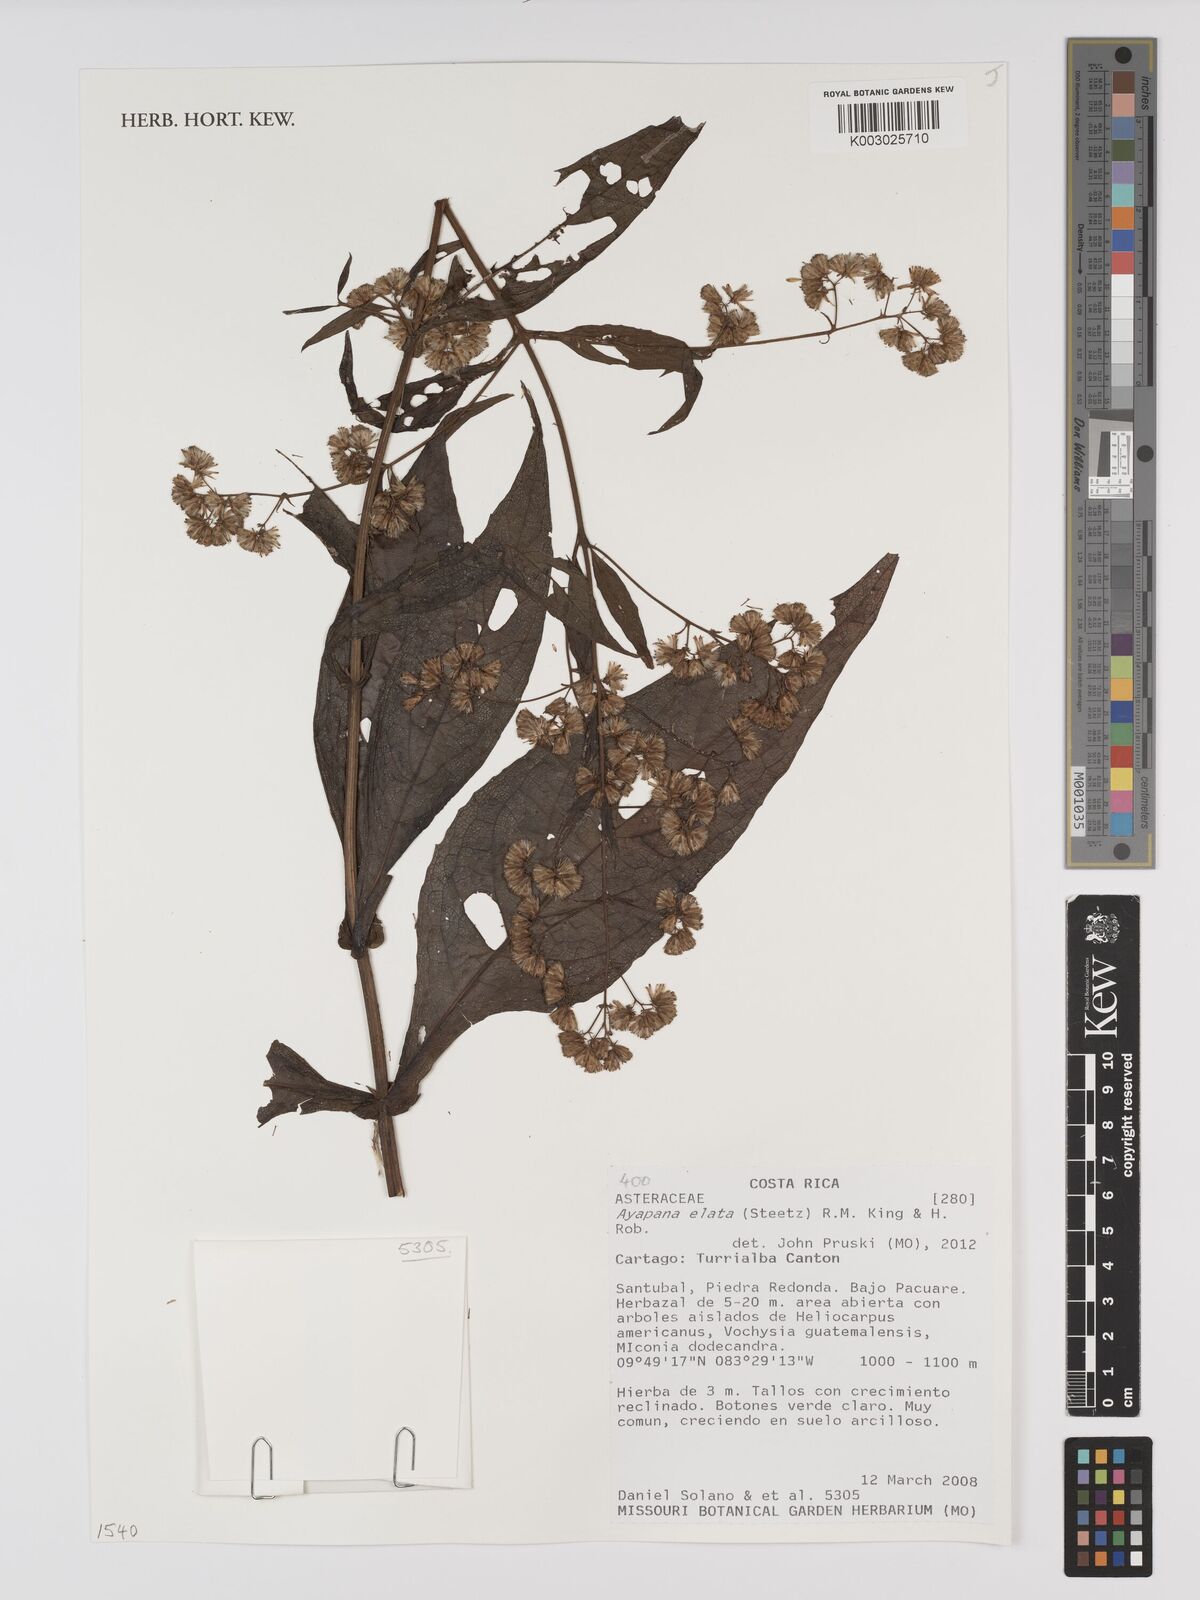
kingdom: Plantae
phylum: Tracheophyta
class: Magnoliopsida
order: Asterales
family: Asteraceae
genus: Ayapana
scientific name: Ayapana elata
